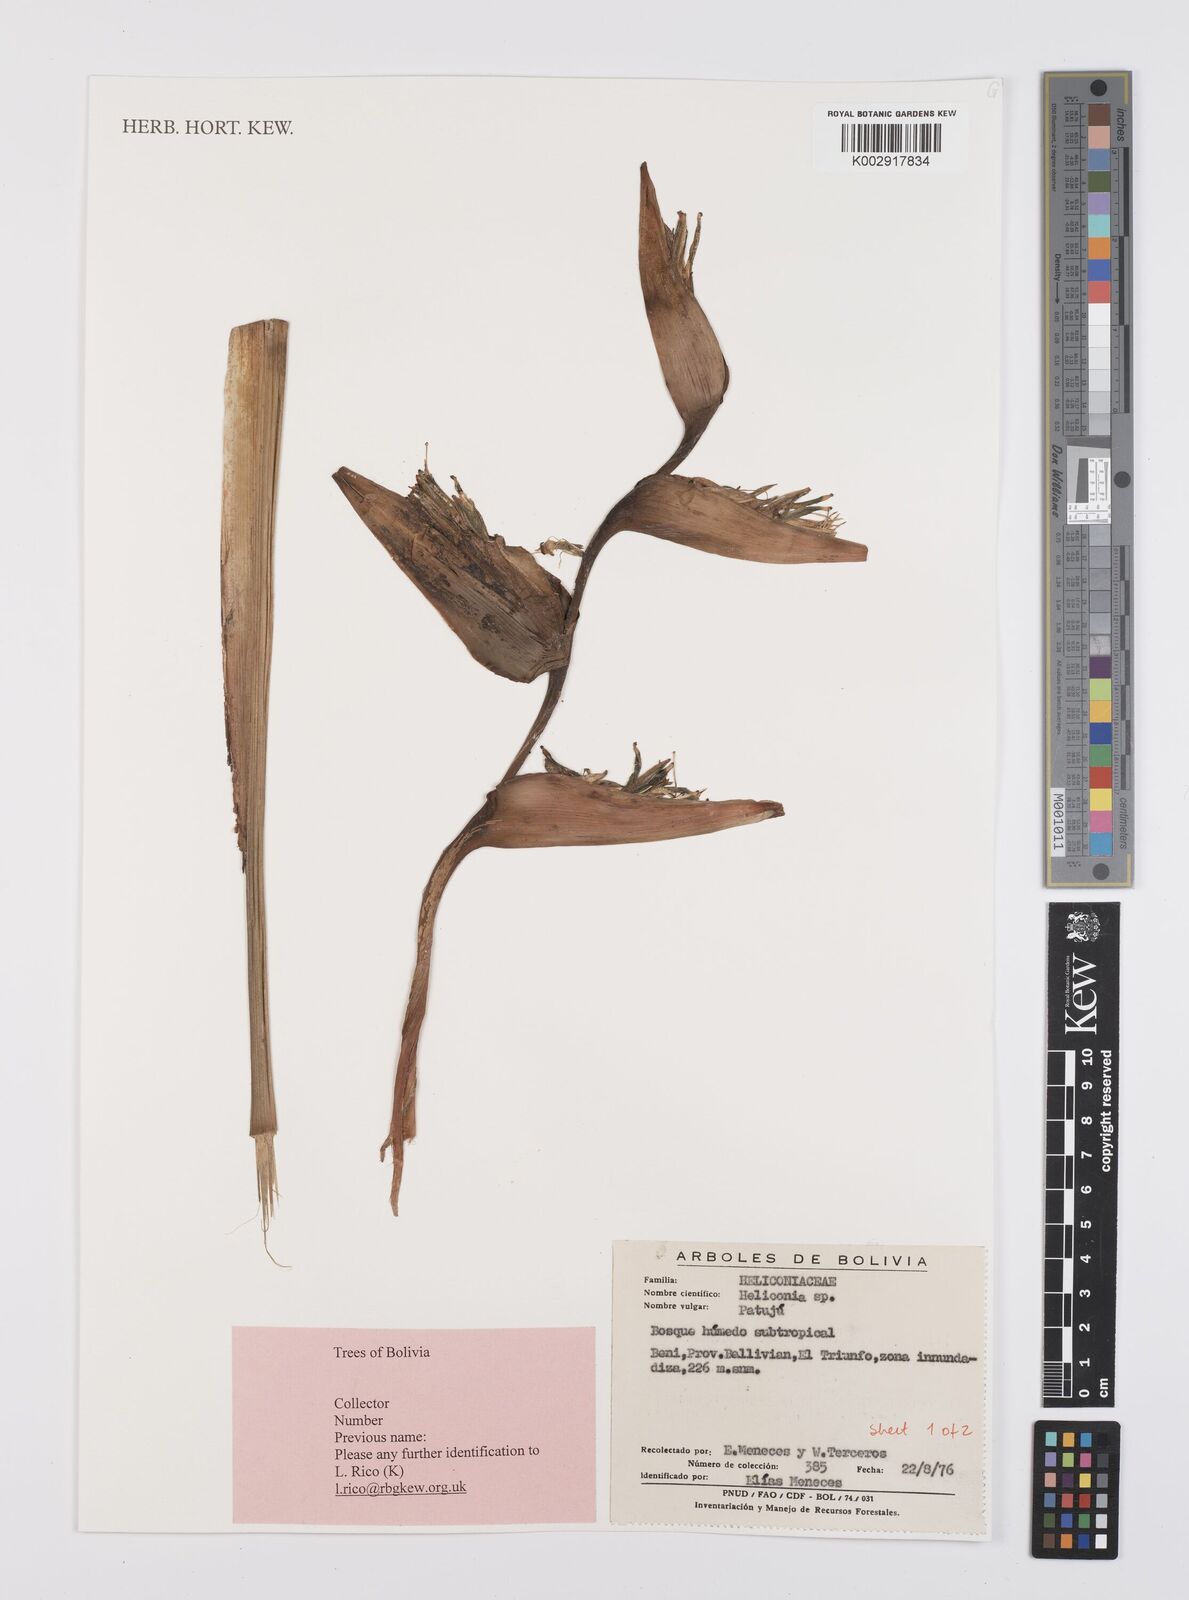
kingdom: Plantae
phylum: Tracheophyta
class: Liliopsida
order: Zingiberales
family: Heliconiaceae
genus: Heliconia
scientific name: Heliconia
